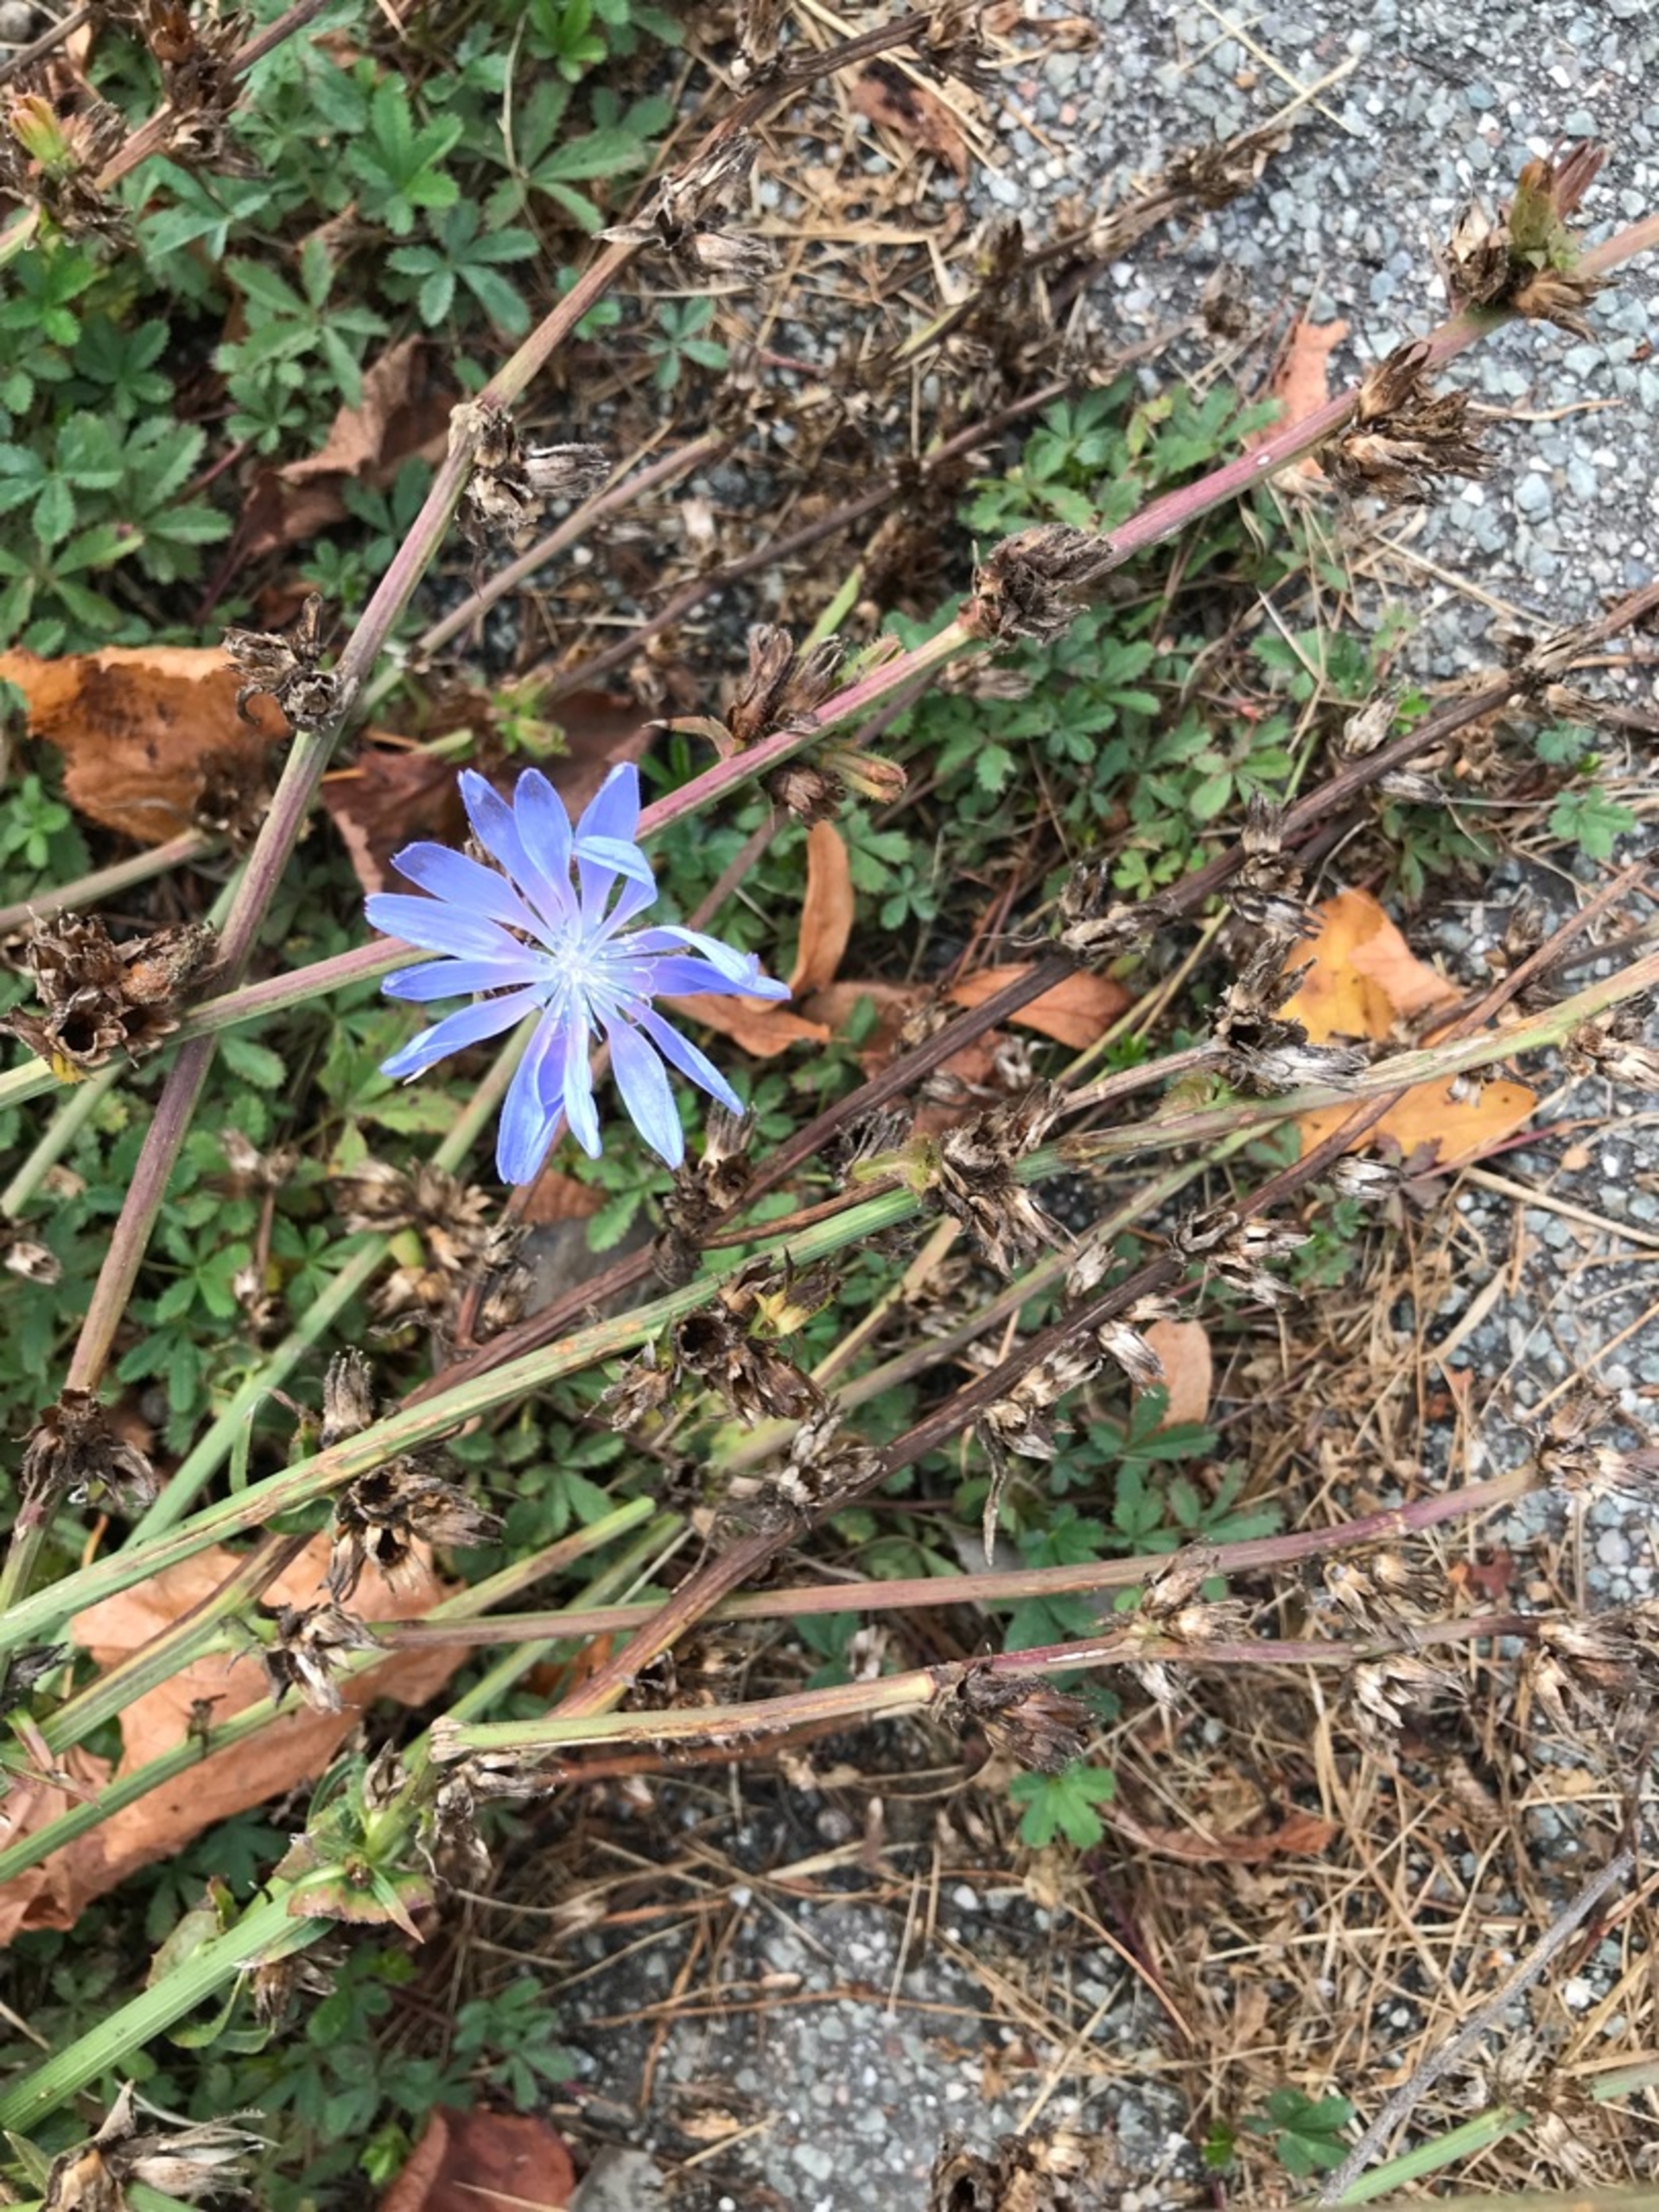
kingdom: Plantae
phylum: Tracheophyta
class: Magnoliopsida
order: Asterales
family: Asteraceae
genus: Cichorium
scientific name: Cichorium intybus
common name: Cikorie
